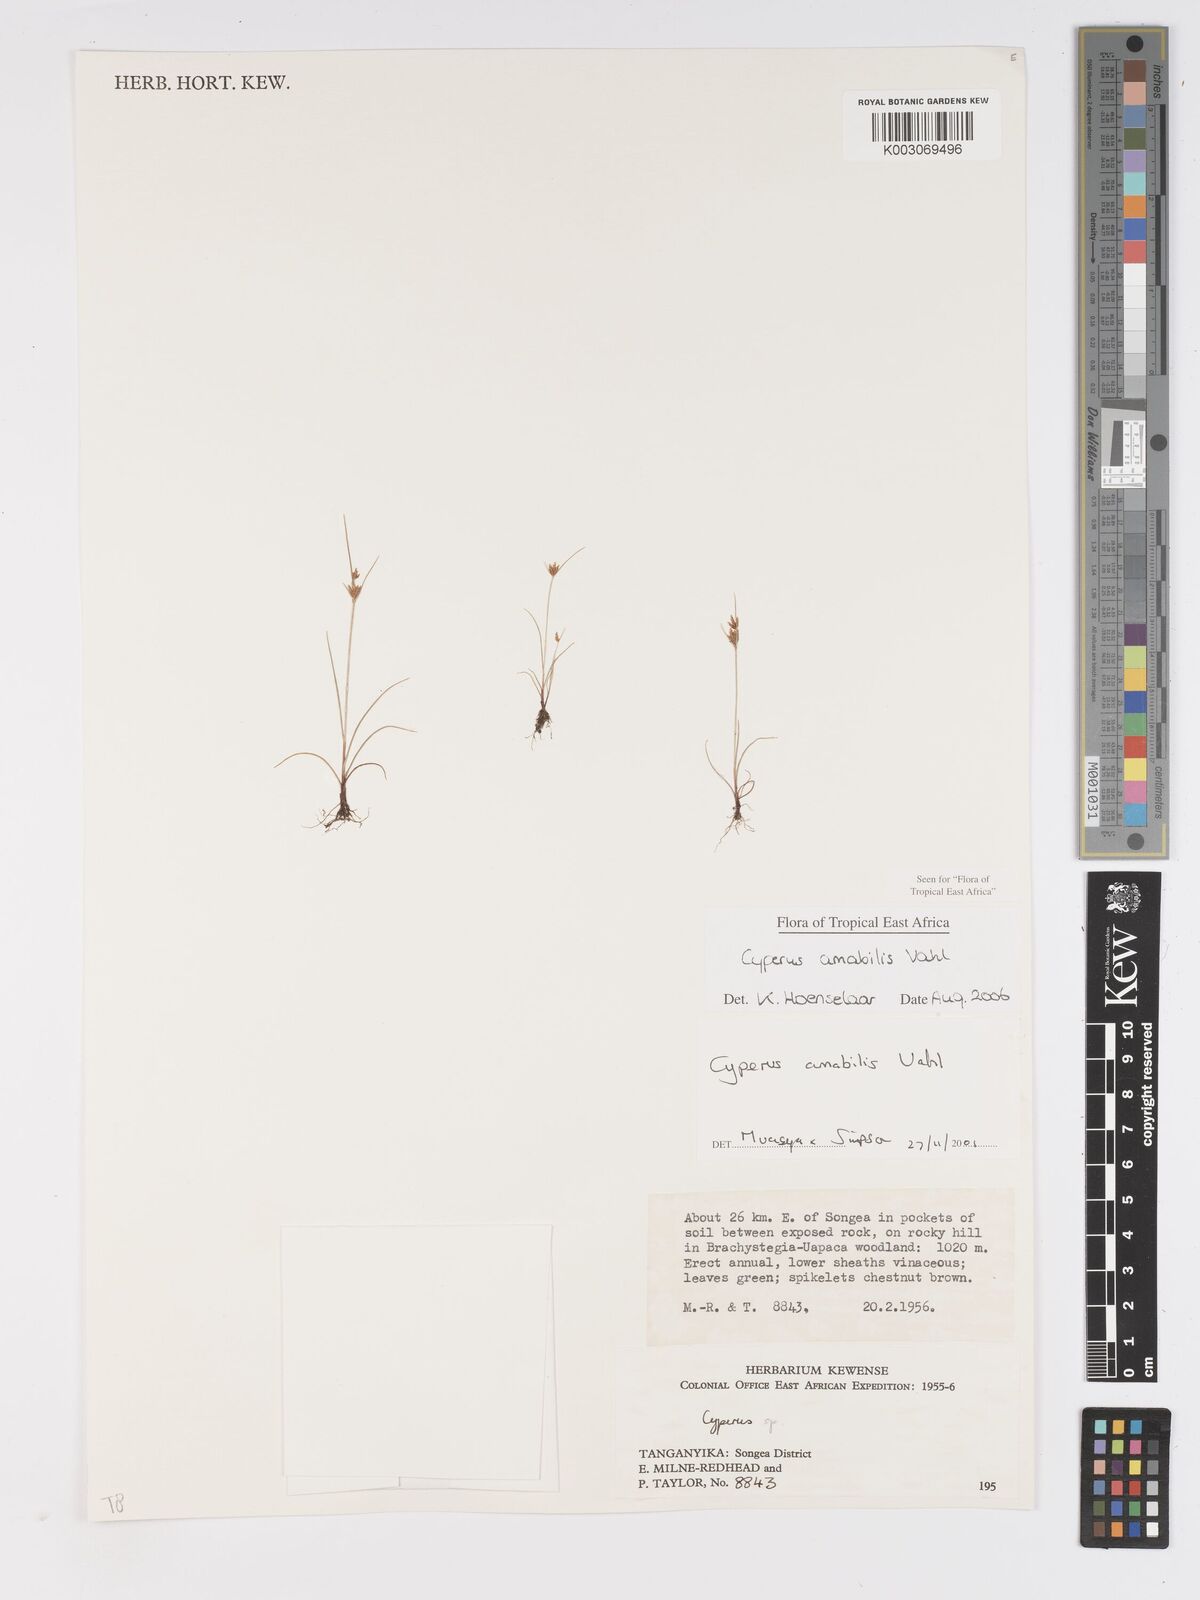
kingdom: Plantae
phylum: Tracheophyta
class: Liliopsida
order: Poales
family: Cyperaceae
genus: Cyperus
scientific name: Cyperus amabilis
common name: Foothill flat sedge
